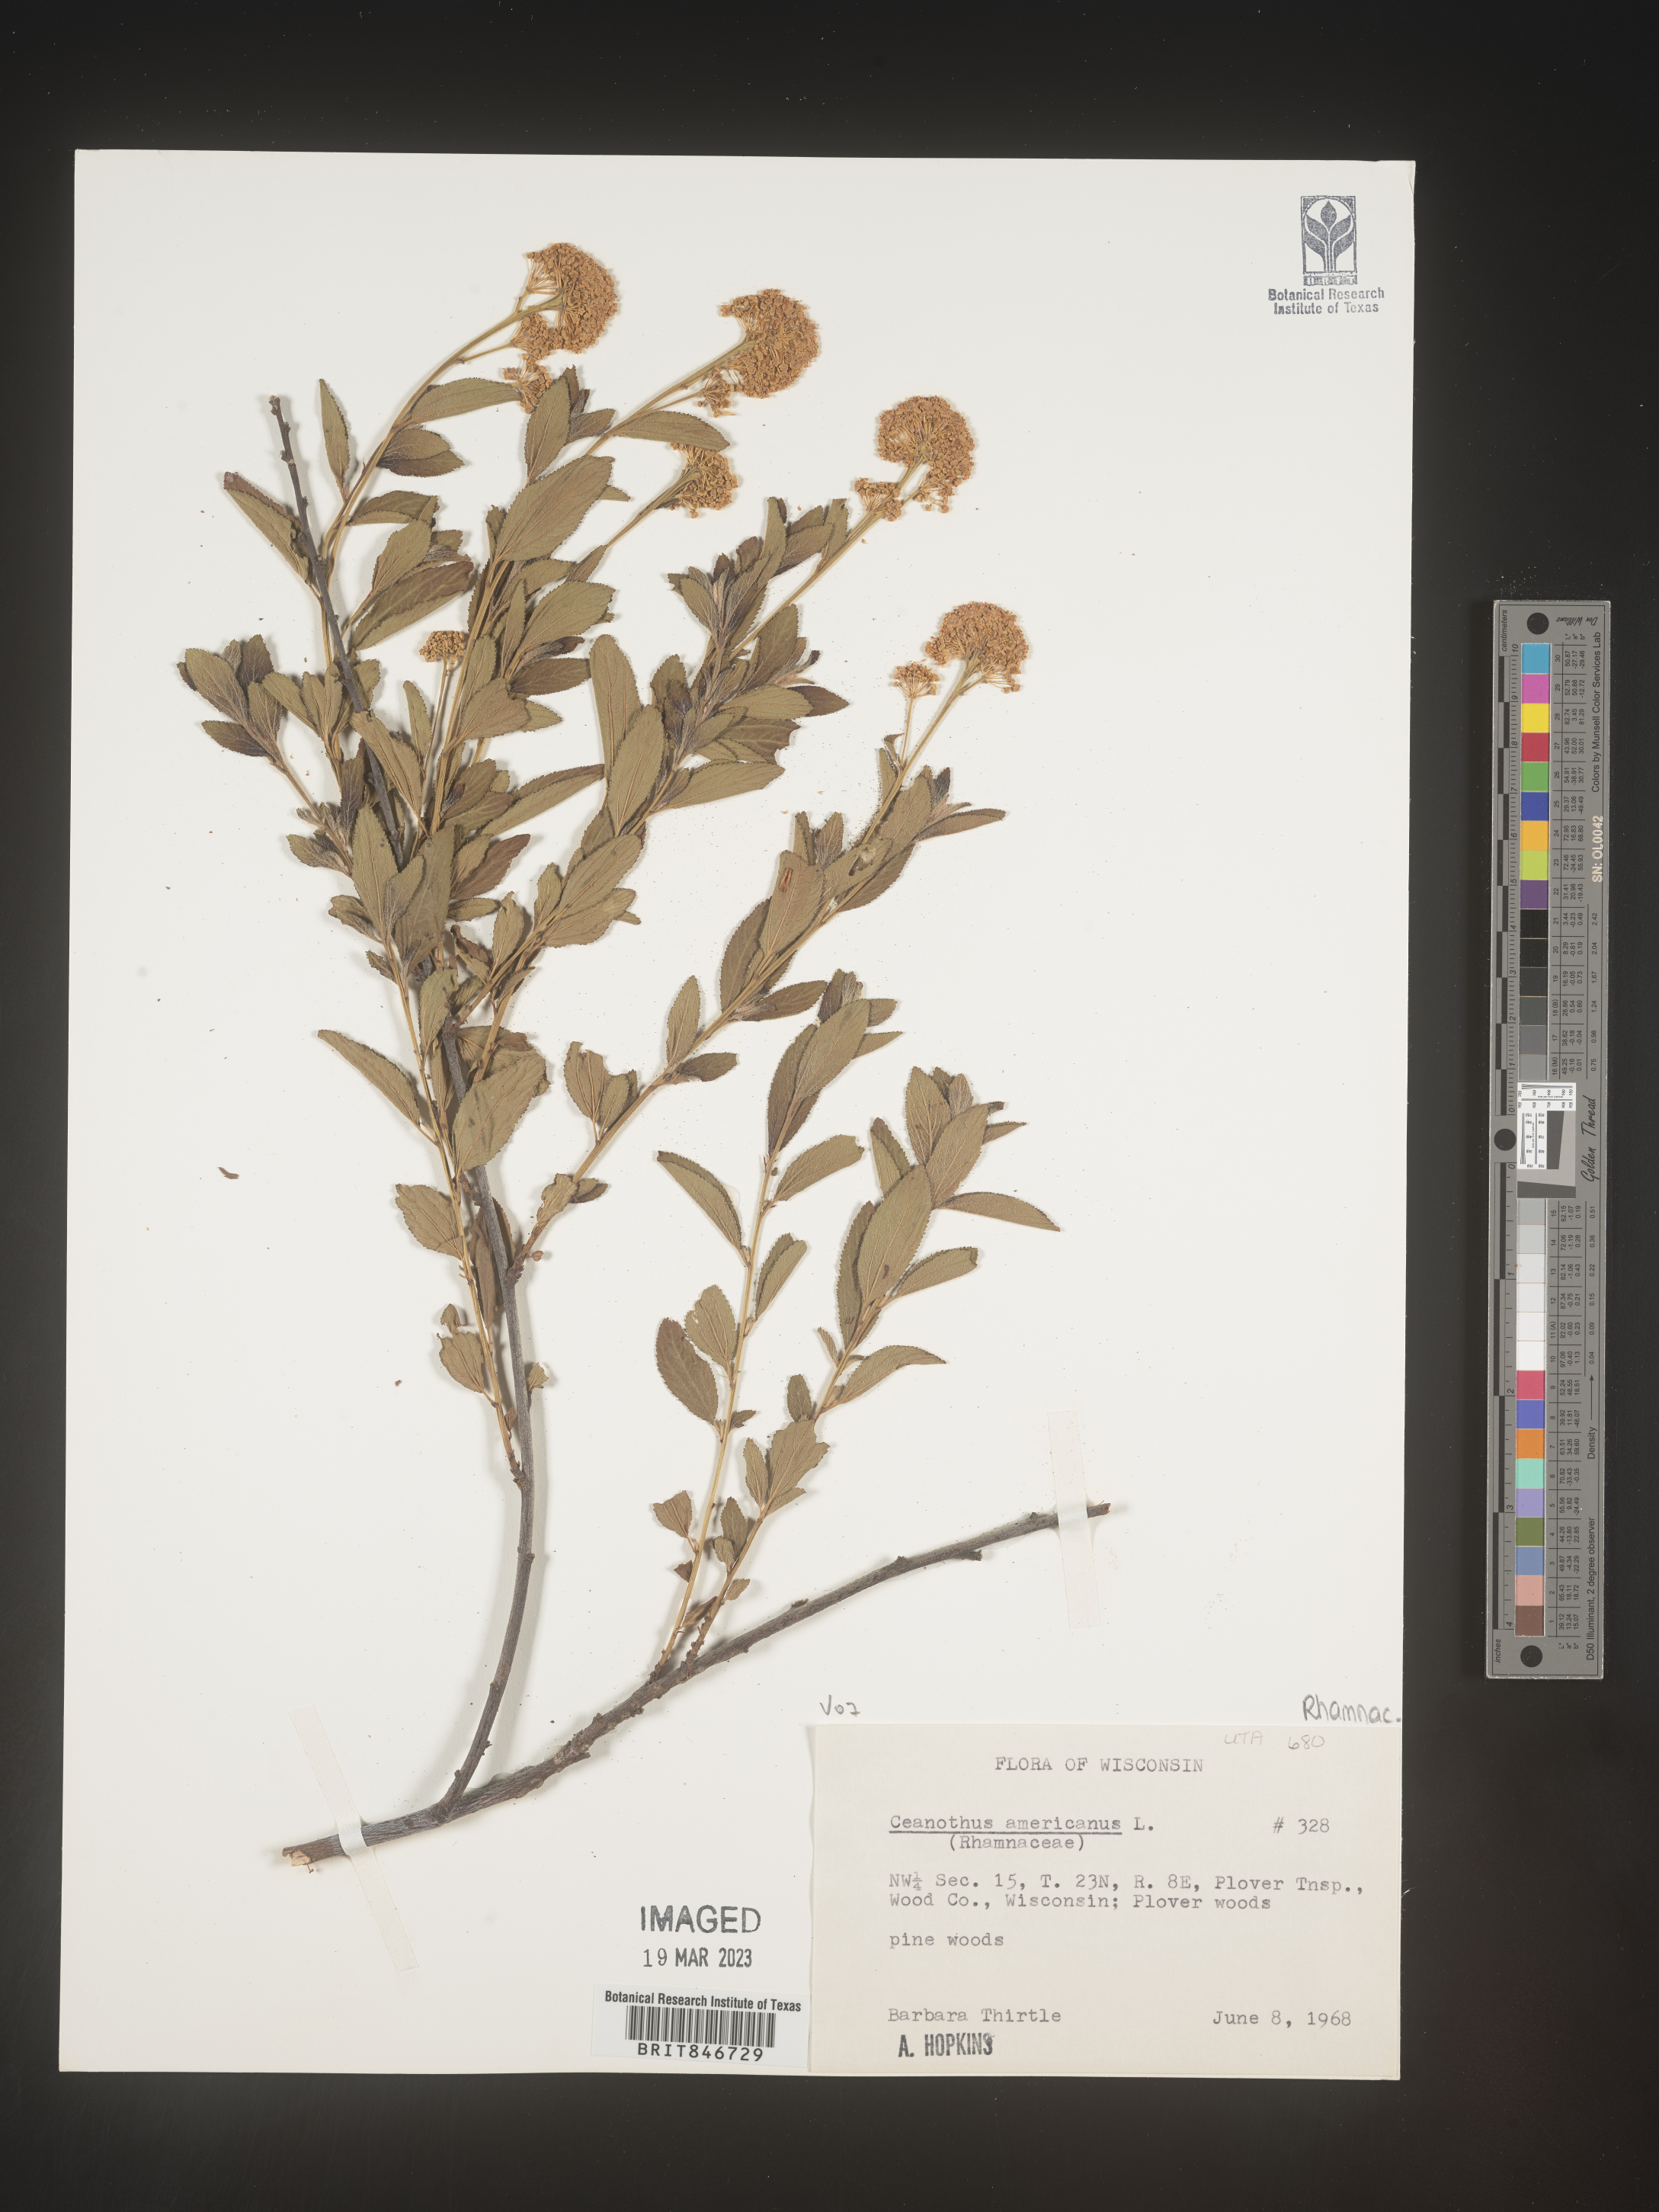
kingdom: Plantae
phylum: Tracheophyta
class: Magnoliopsida
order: Rosales
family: Rhamnaceae
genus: Ceanothus
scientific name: Ceanothus americanus
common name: Redroot
